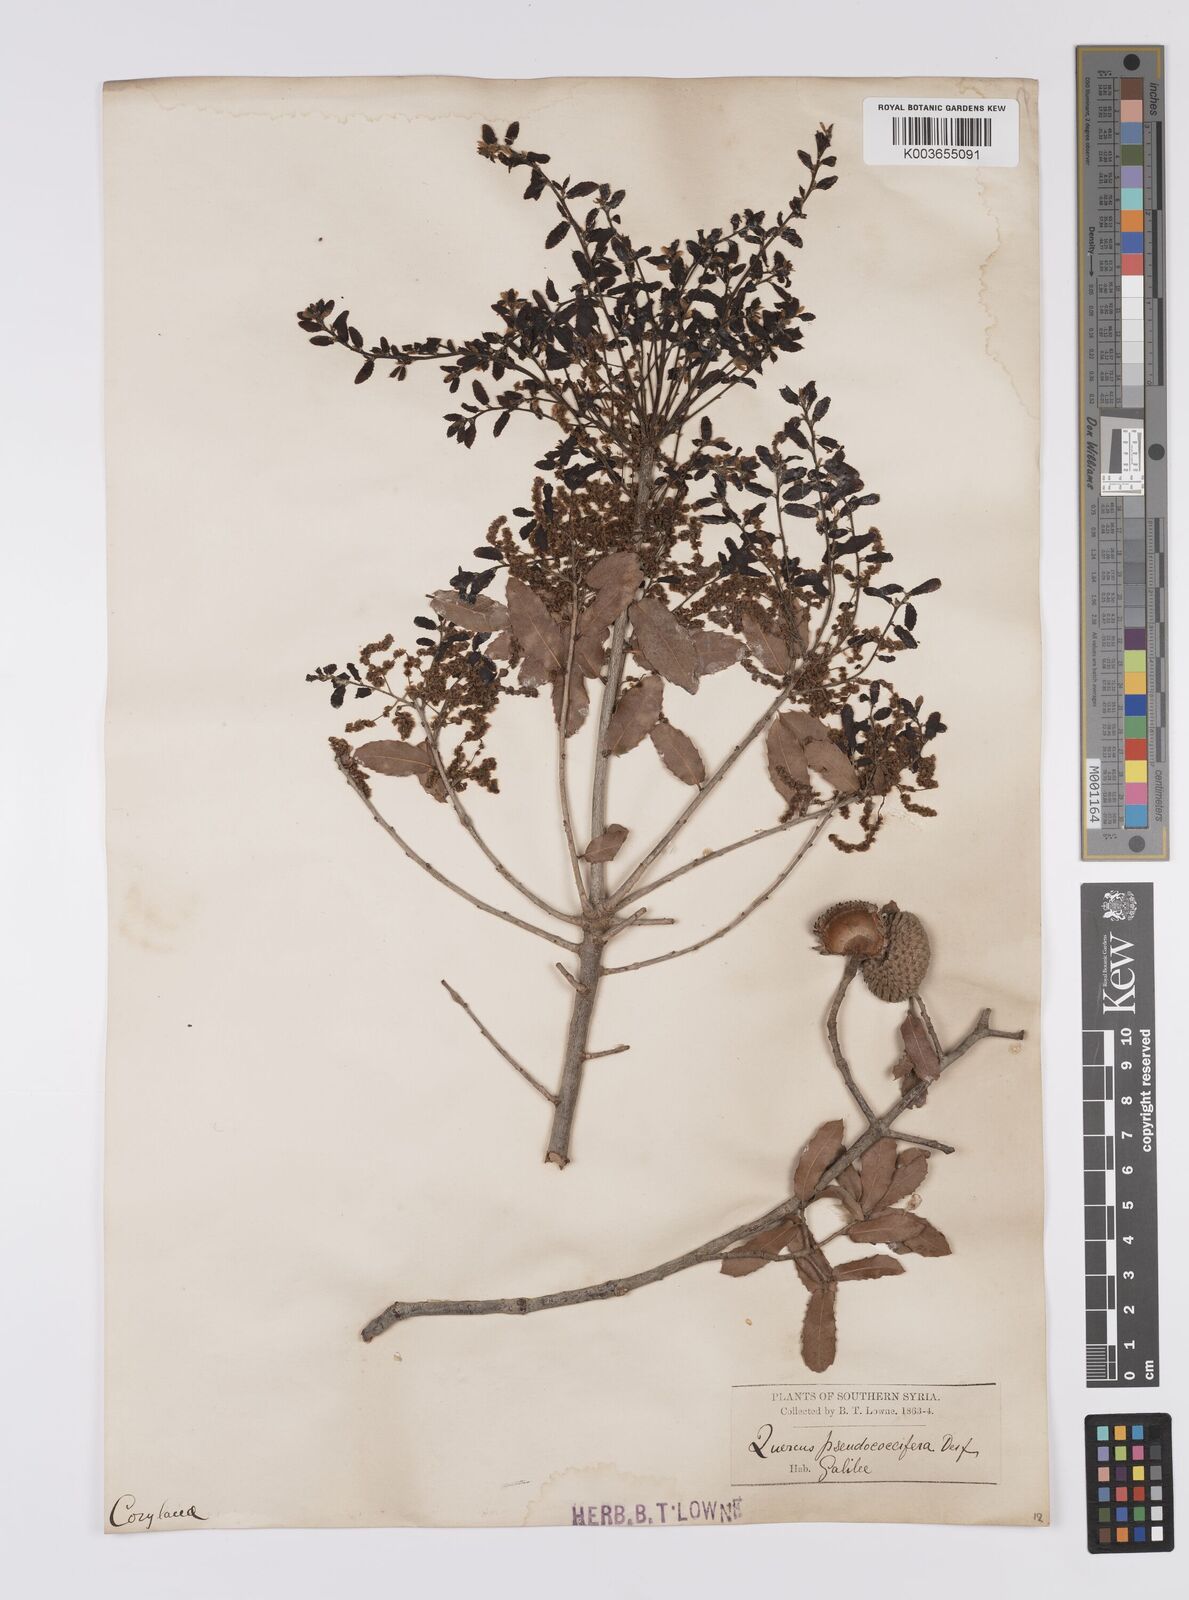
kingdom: Plantae
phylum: Tracheophyta
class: Magnoliopsida
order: Fagales
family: Fagaceae
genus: Quercus
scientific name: Quercus coccifera
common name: Kermes oak
